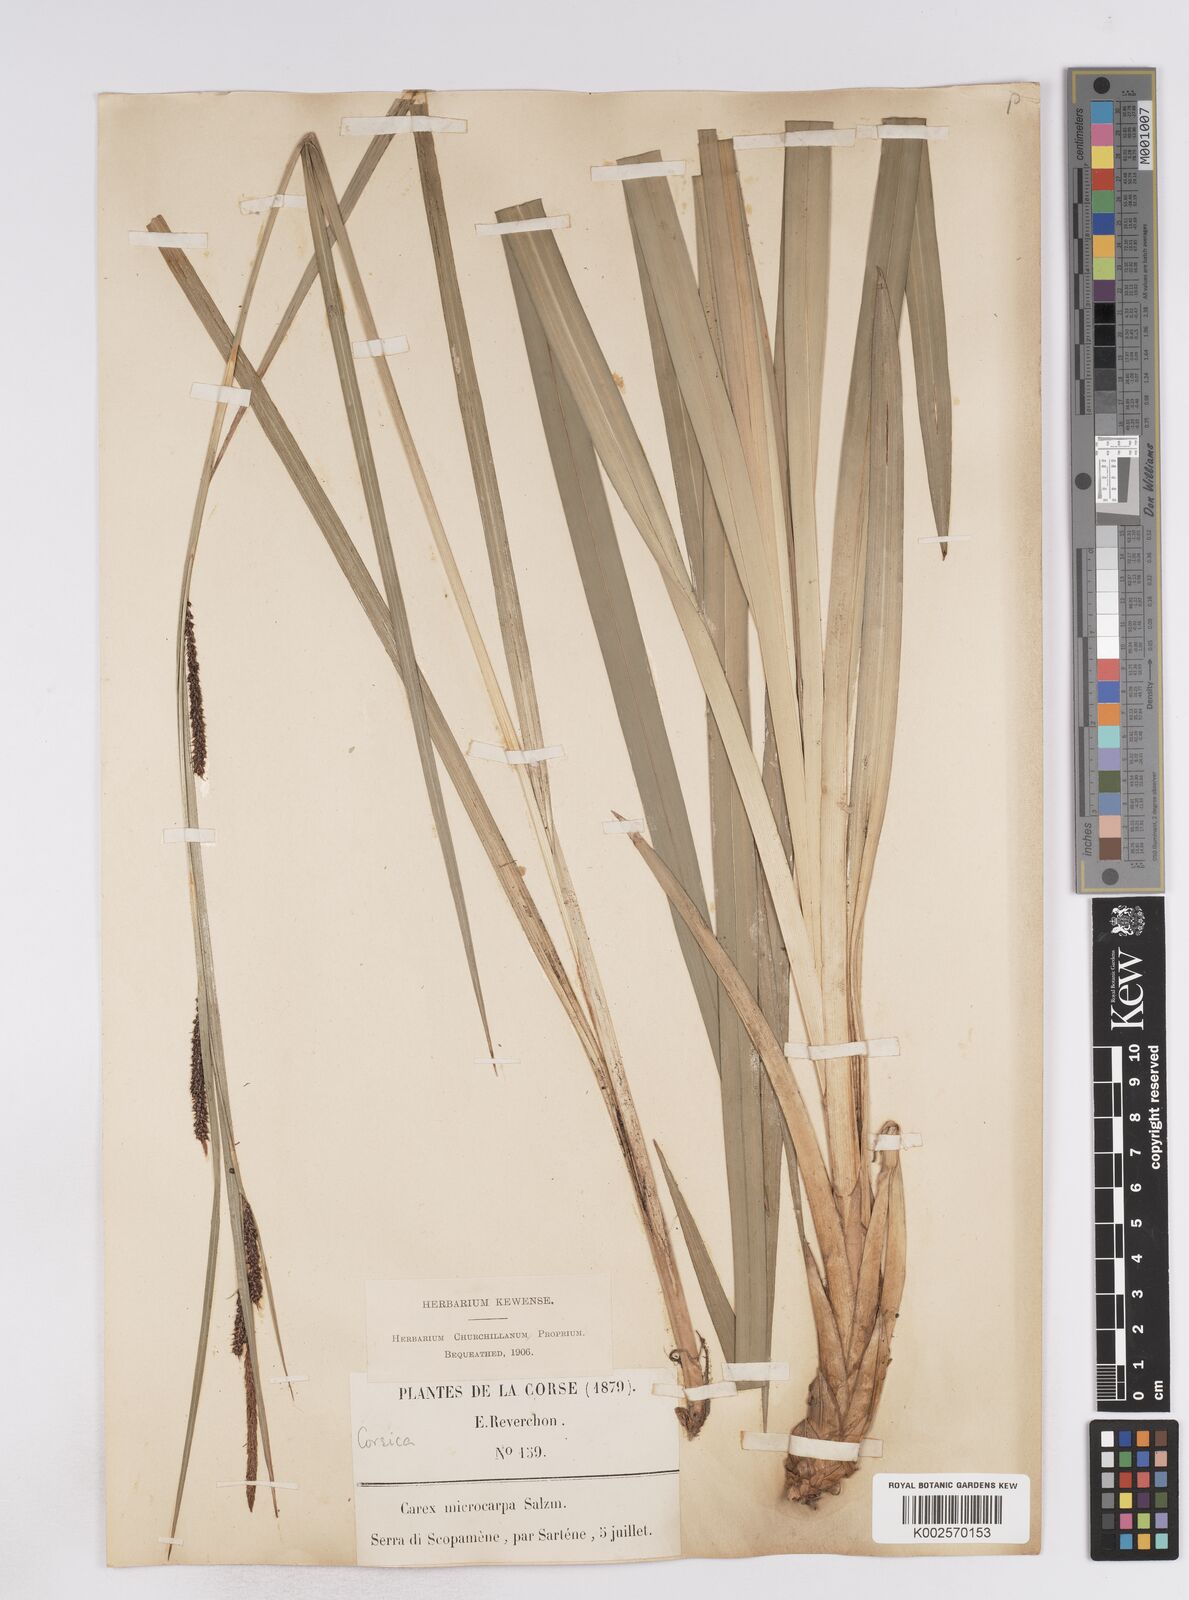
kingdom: Plantae
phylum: Tracheophyta
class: Liliopsida
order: Poales
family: Cyperaceae
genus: Carex
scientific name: Carex microcarpa
